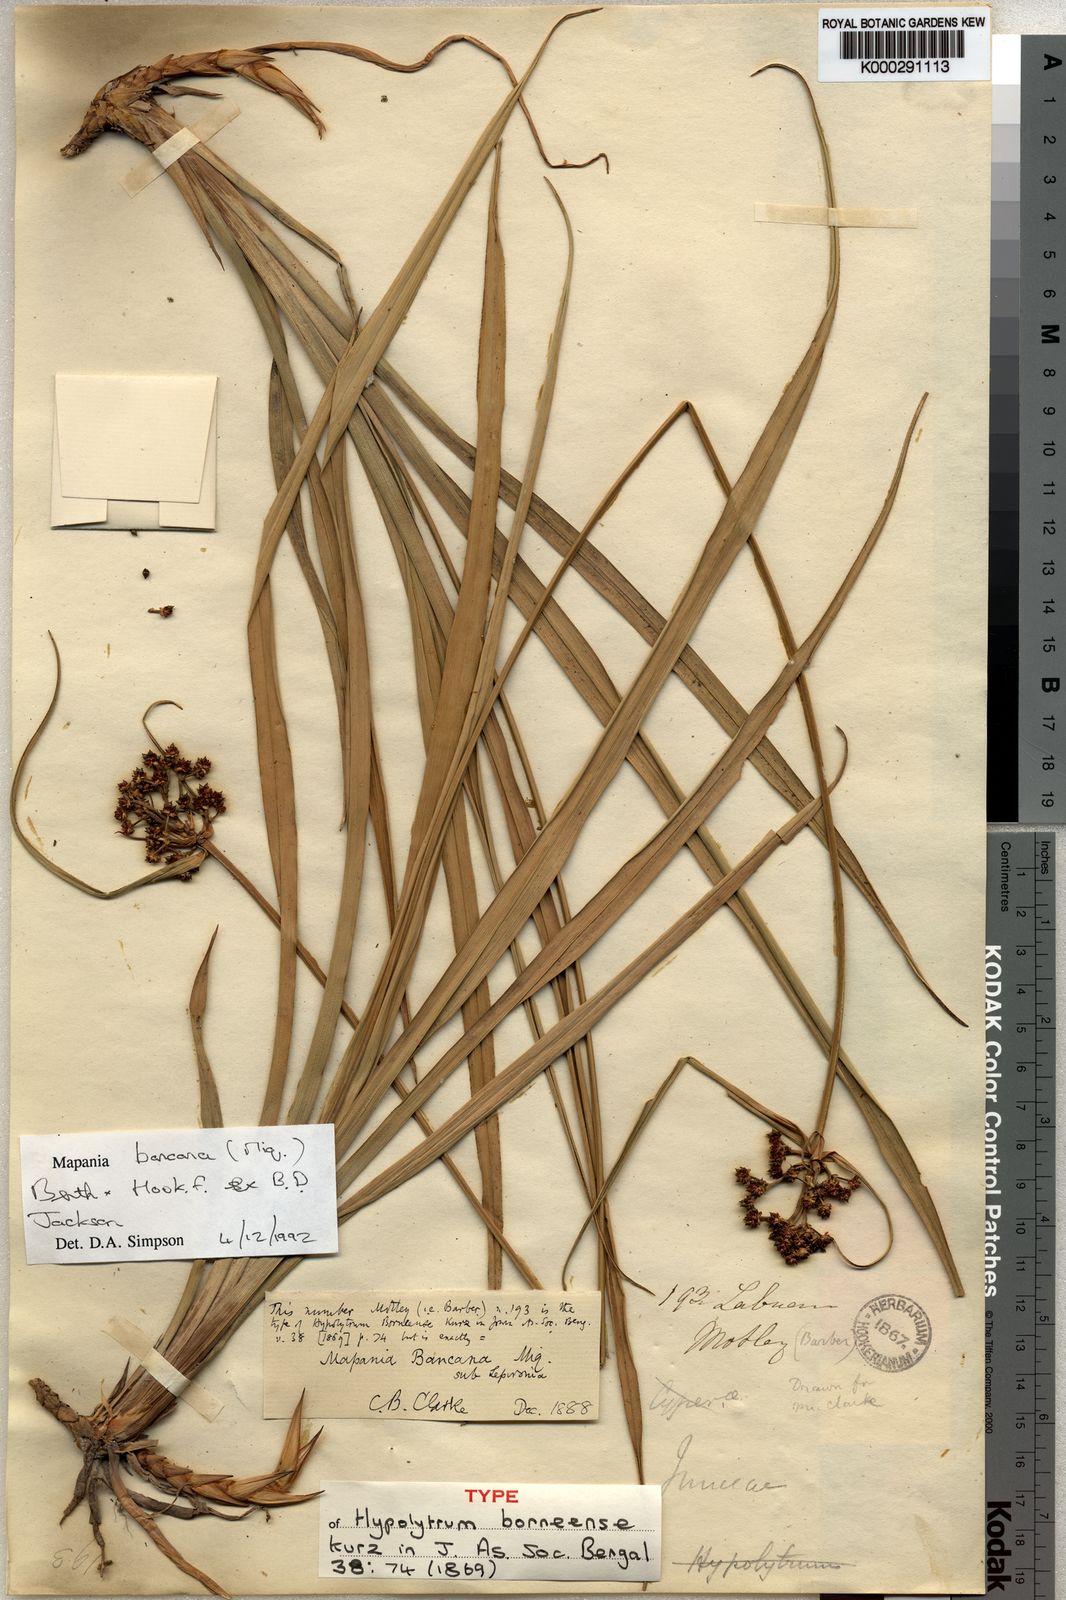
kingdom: Plantae
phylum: Tracheophyta
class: Liliopsida
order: Poales
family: Cyperaceae
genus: Mapania
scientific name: Mapania
